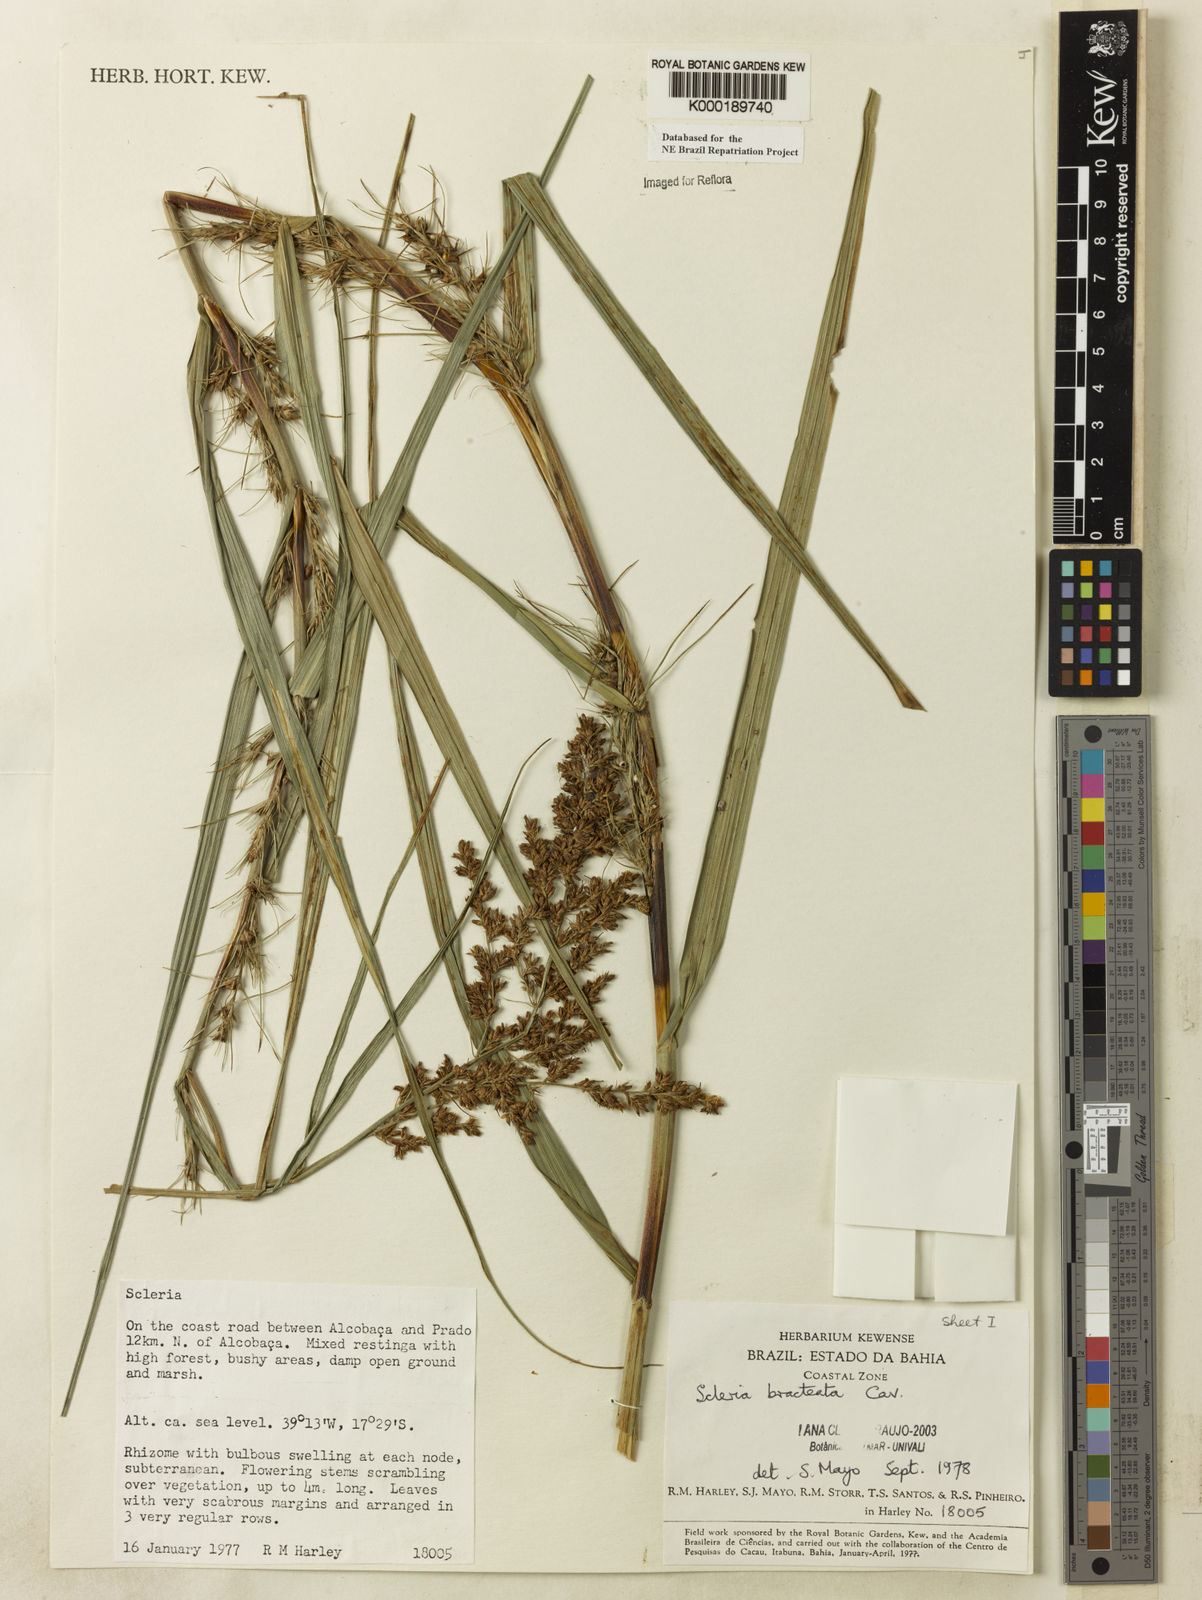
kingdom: Plantae
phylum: Tracheophyta
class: Liliopsida
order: Poales
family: Cyperaceae
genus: Scleria
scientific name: Scleria bracteata
